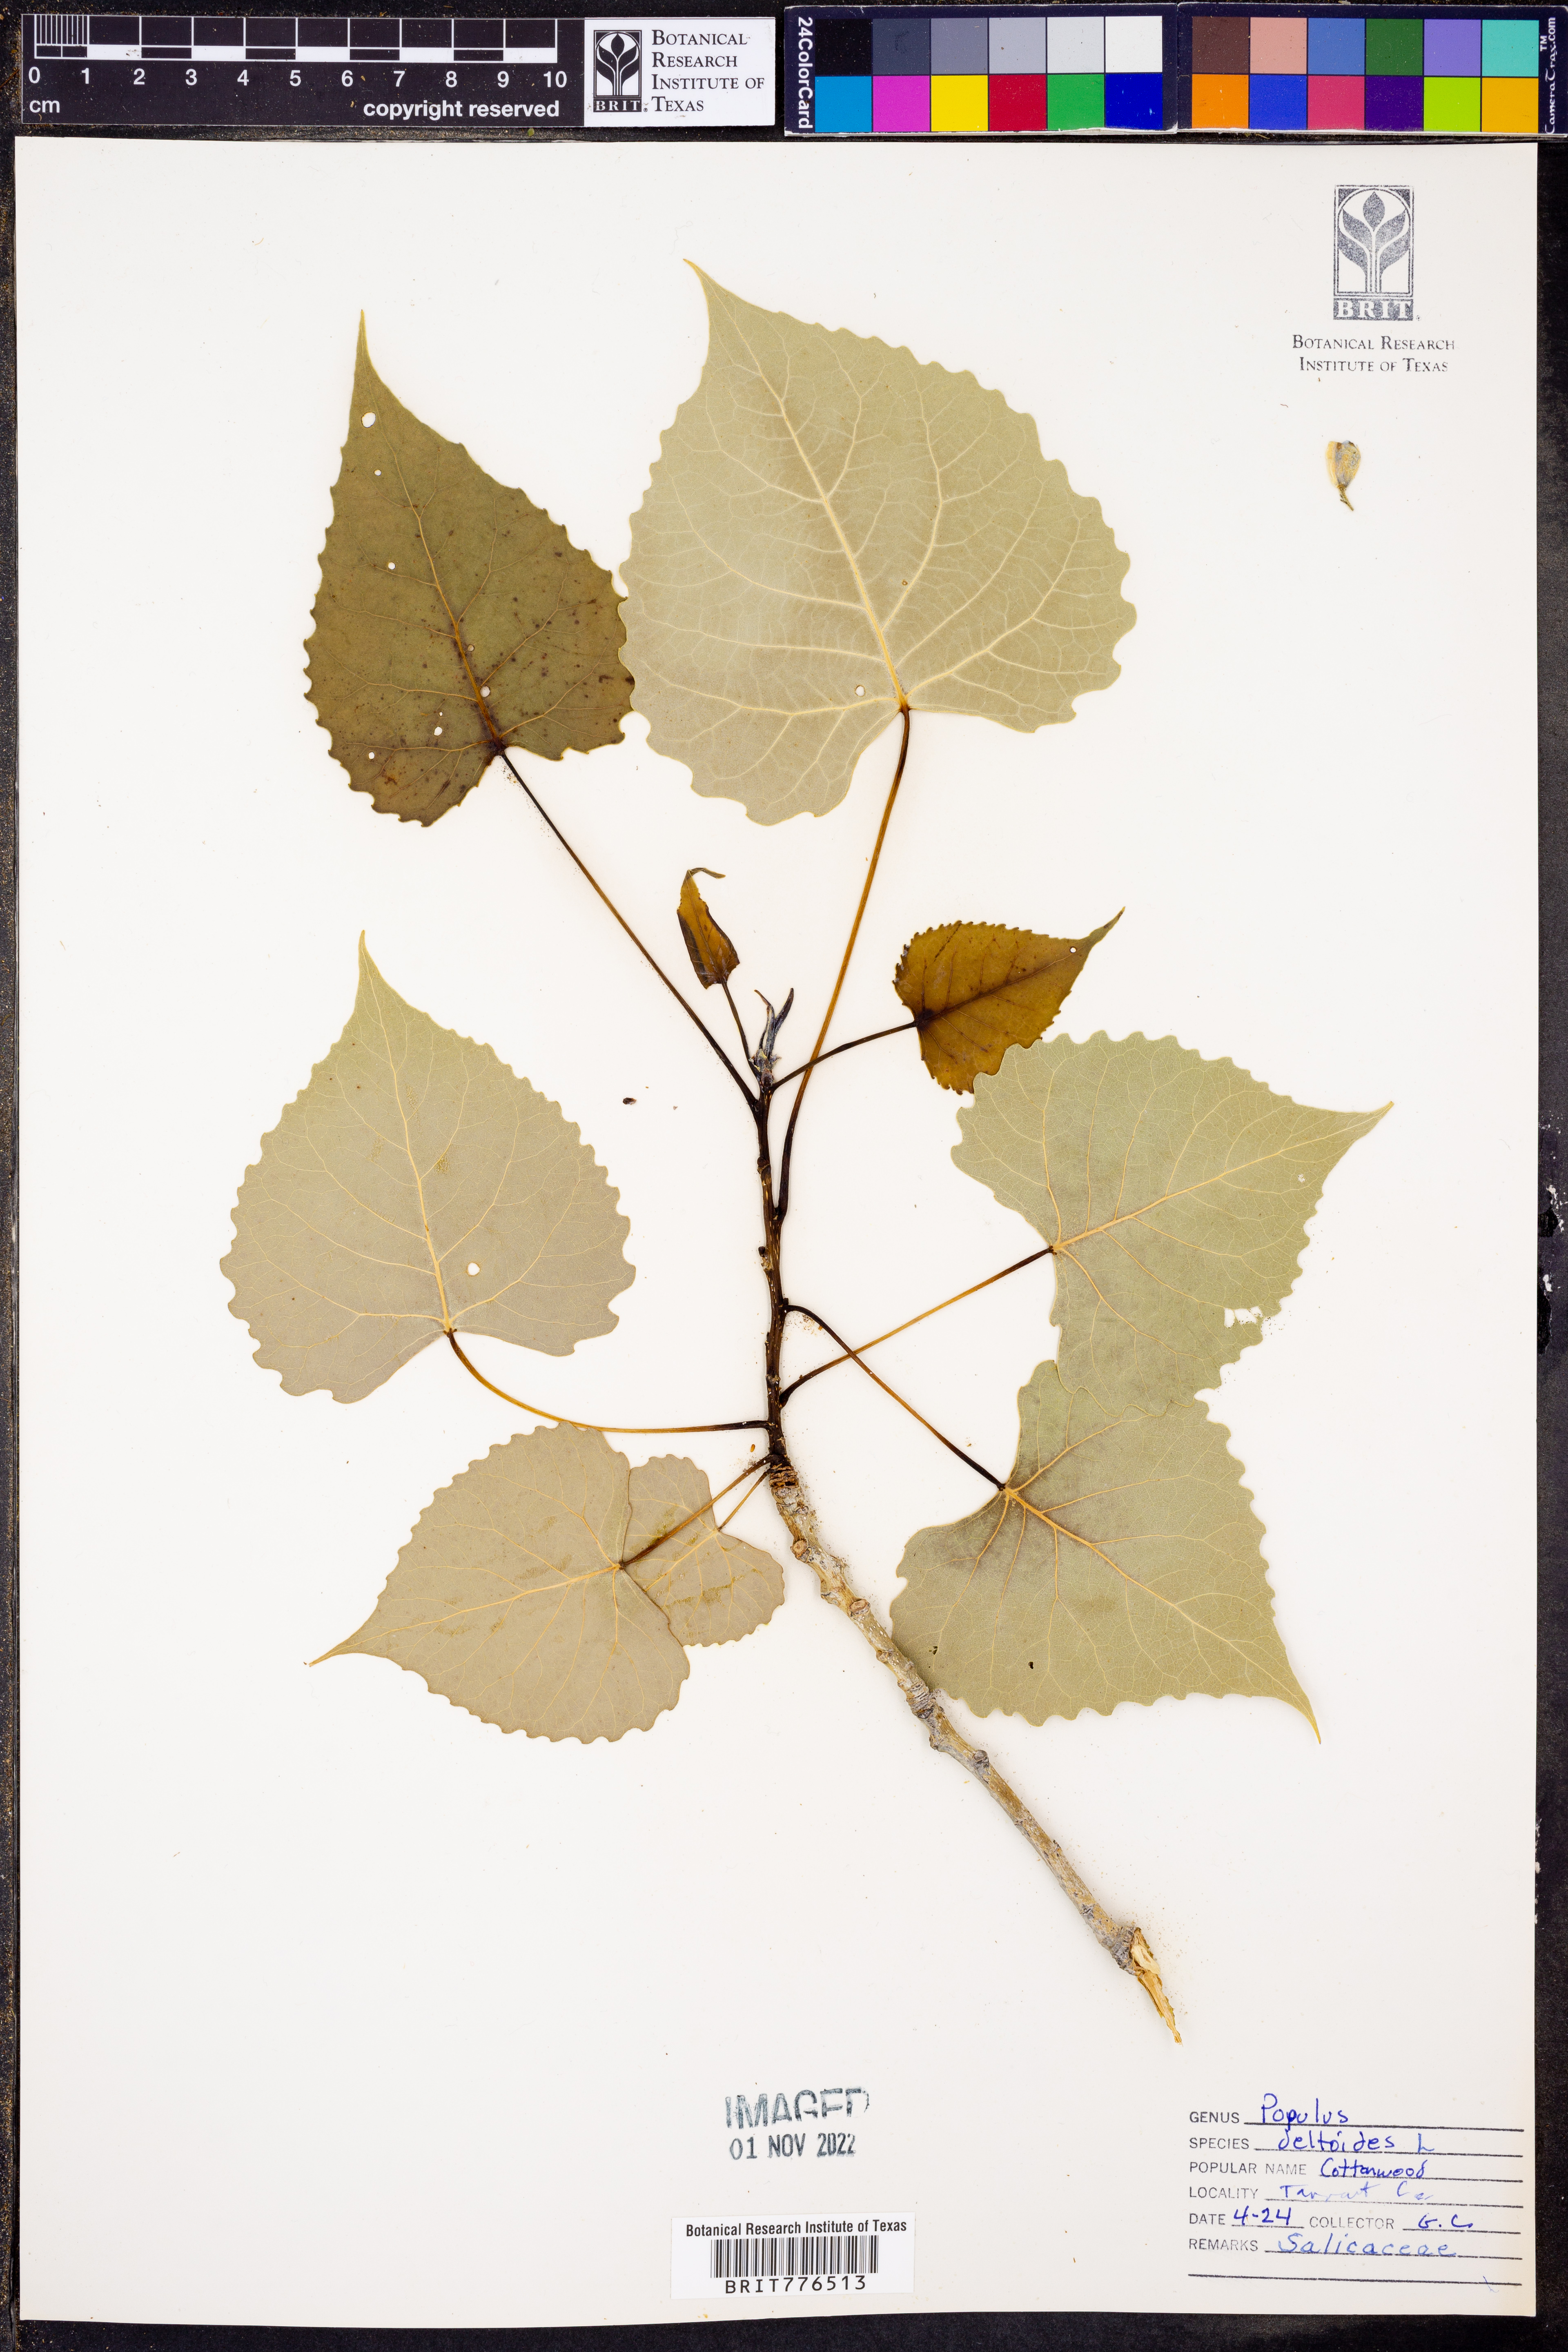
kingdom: Plantae
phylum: Tracheophyta
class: Magnoliopsida
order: Malpighiales
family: Salicaceae
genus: Populus
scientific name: Populus deltoides
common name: Eastern cottonwood
